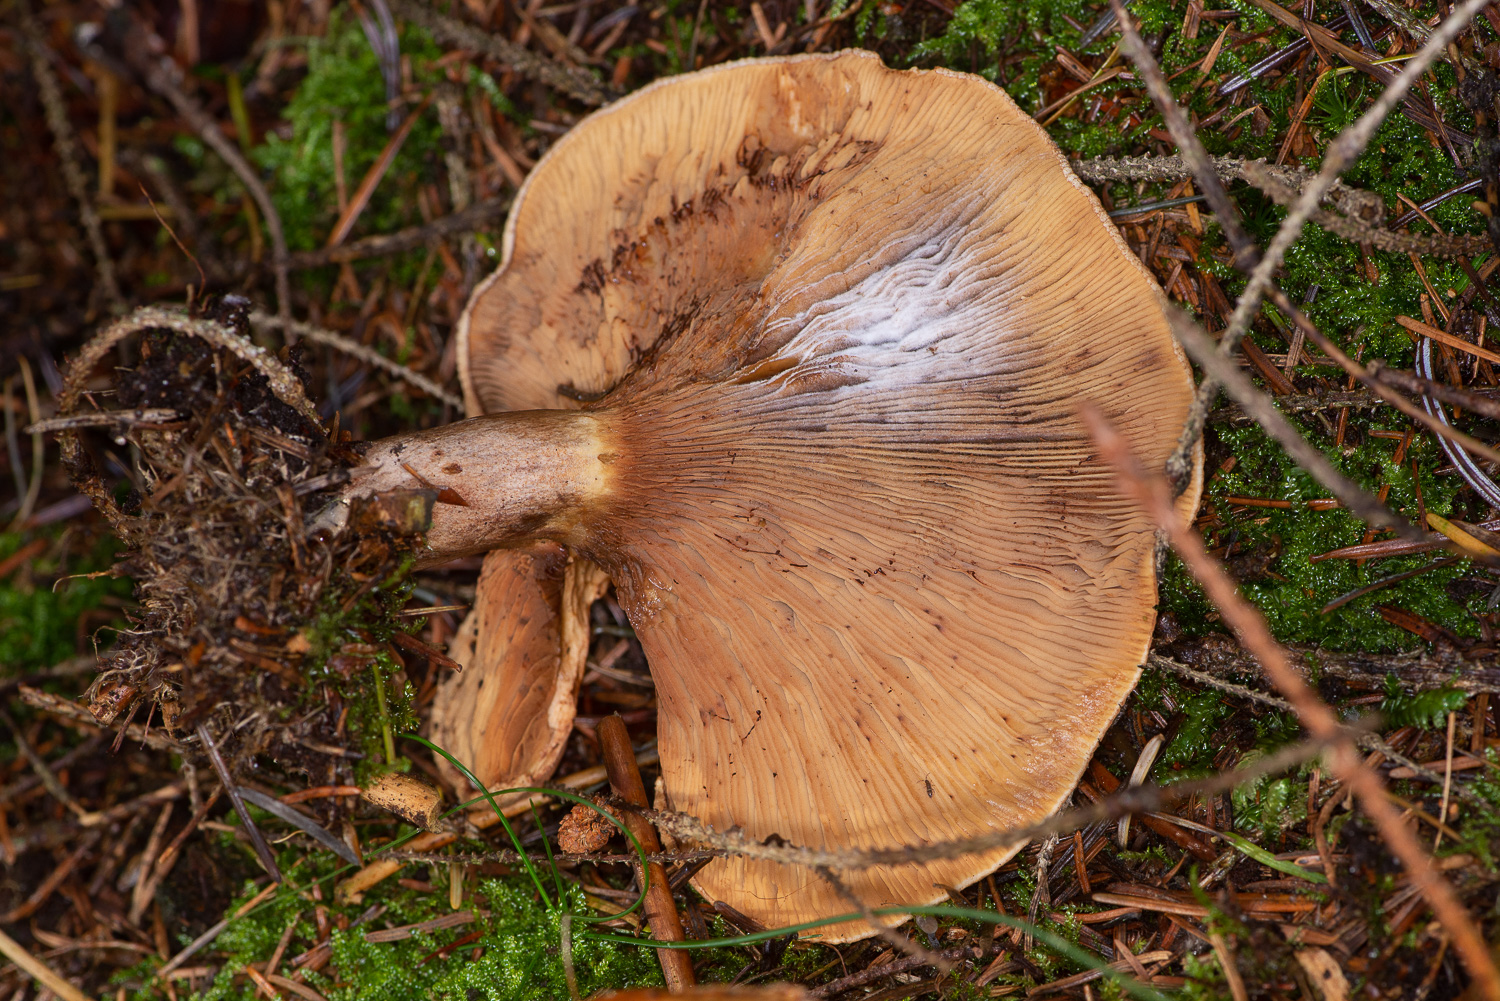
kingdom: Fungi
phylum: Basidiomycota
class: Agaricomycetes
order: Boletales
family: Paxillaceae
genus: Paxillus
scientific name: Paxillus involutus
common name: almindelig netbladhat
